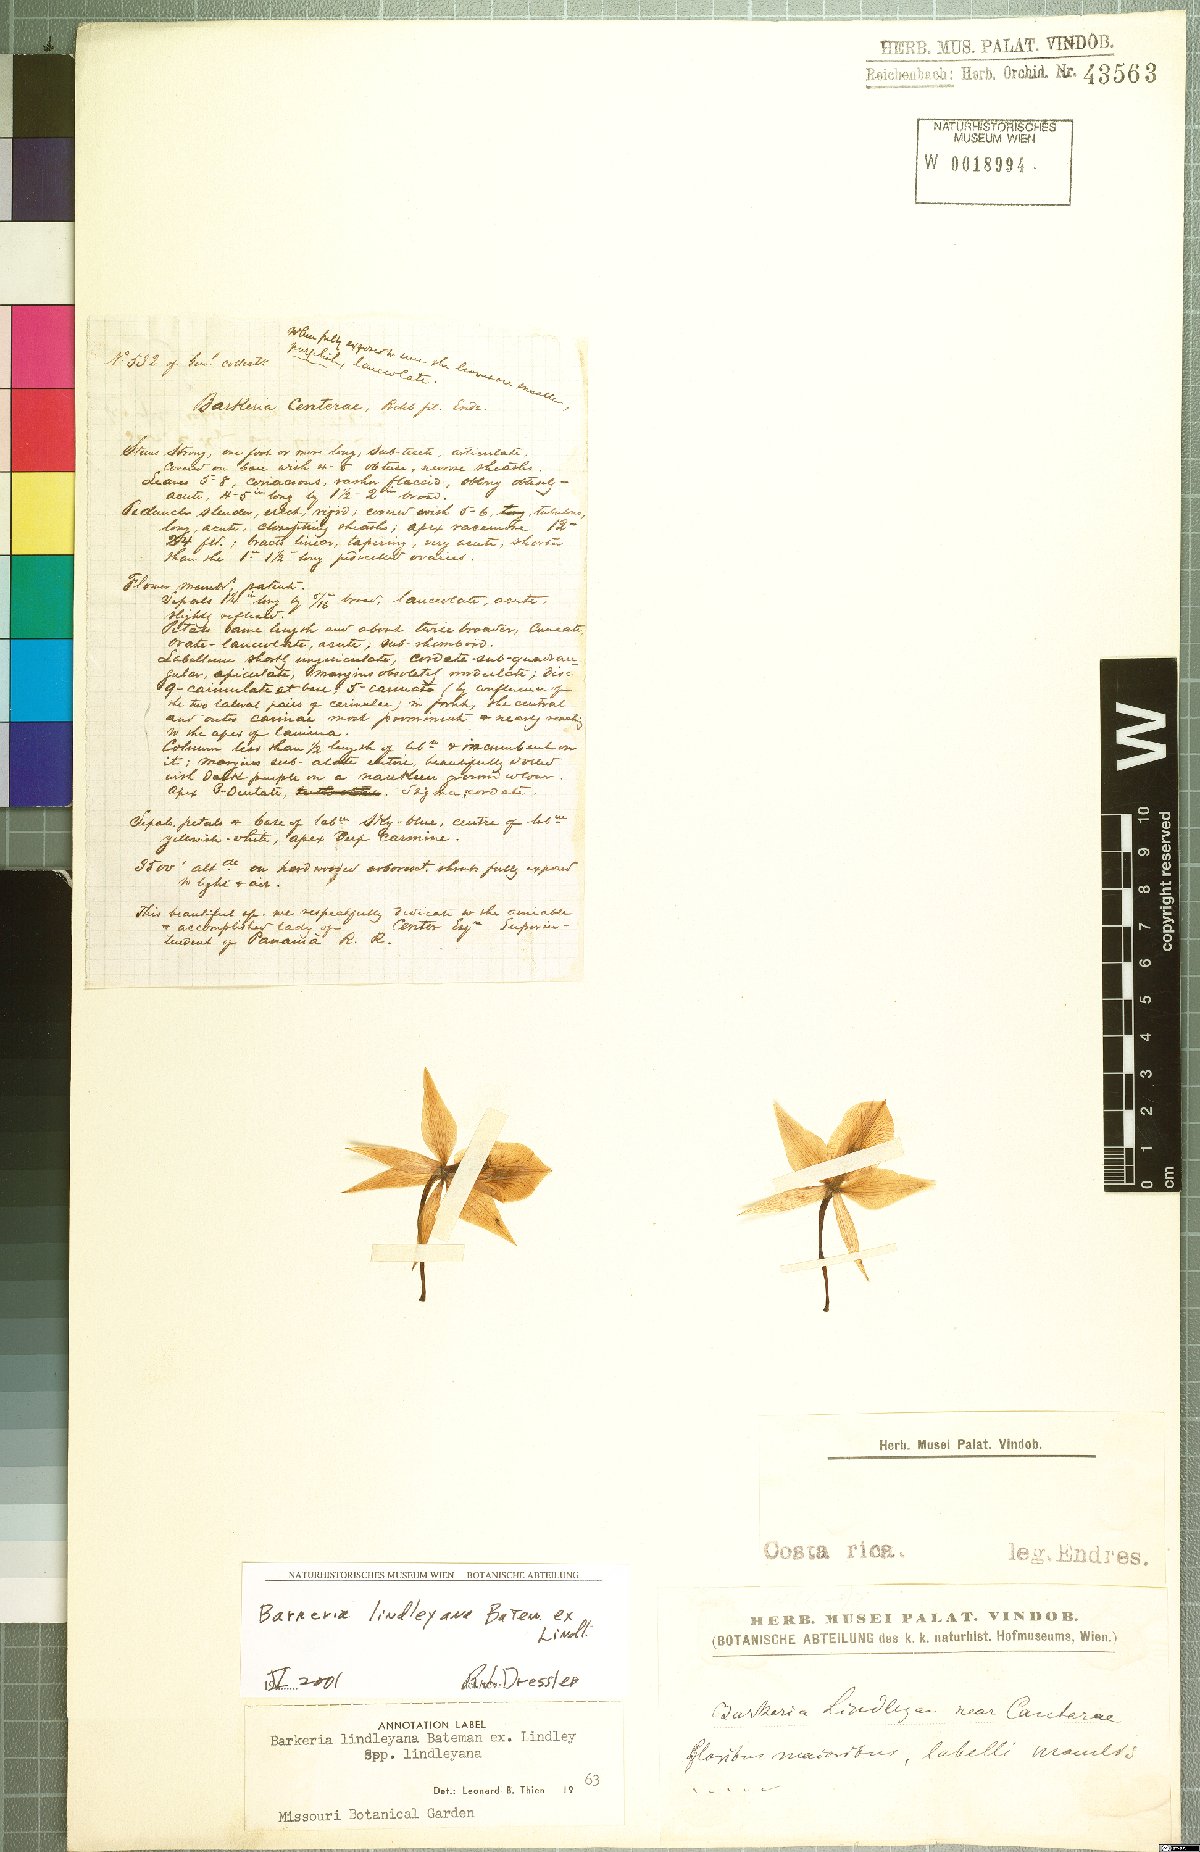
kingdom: Plantae
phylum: Tracheophyta
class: Liliopsida
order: Asparagales
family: Orchidaceae
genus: Barkeria
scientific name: Barkeria lindleyana
